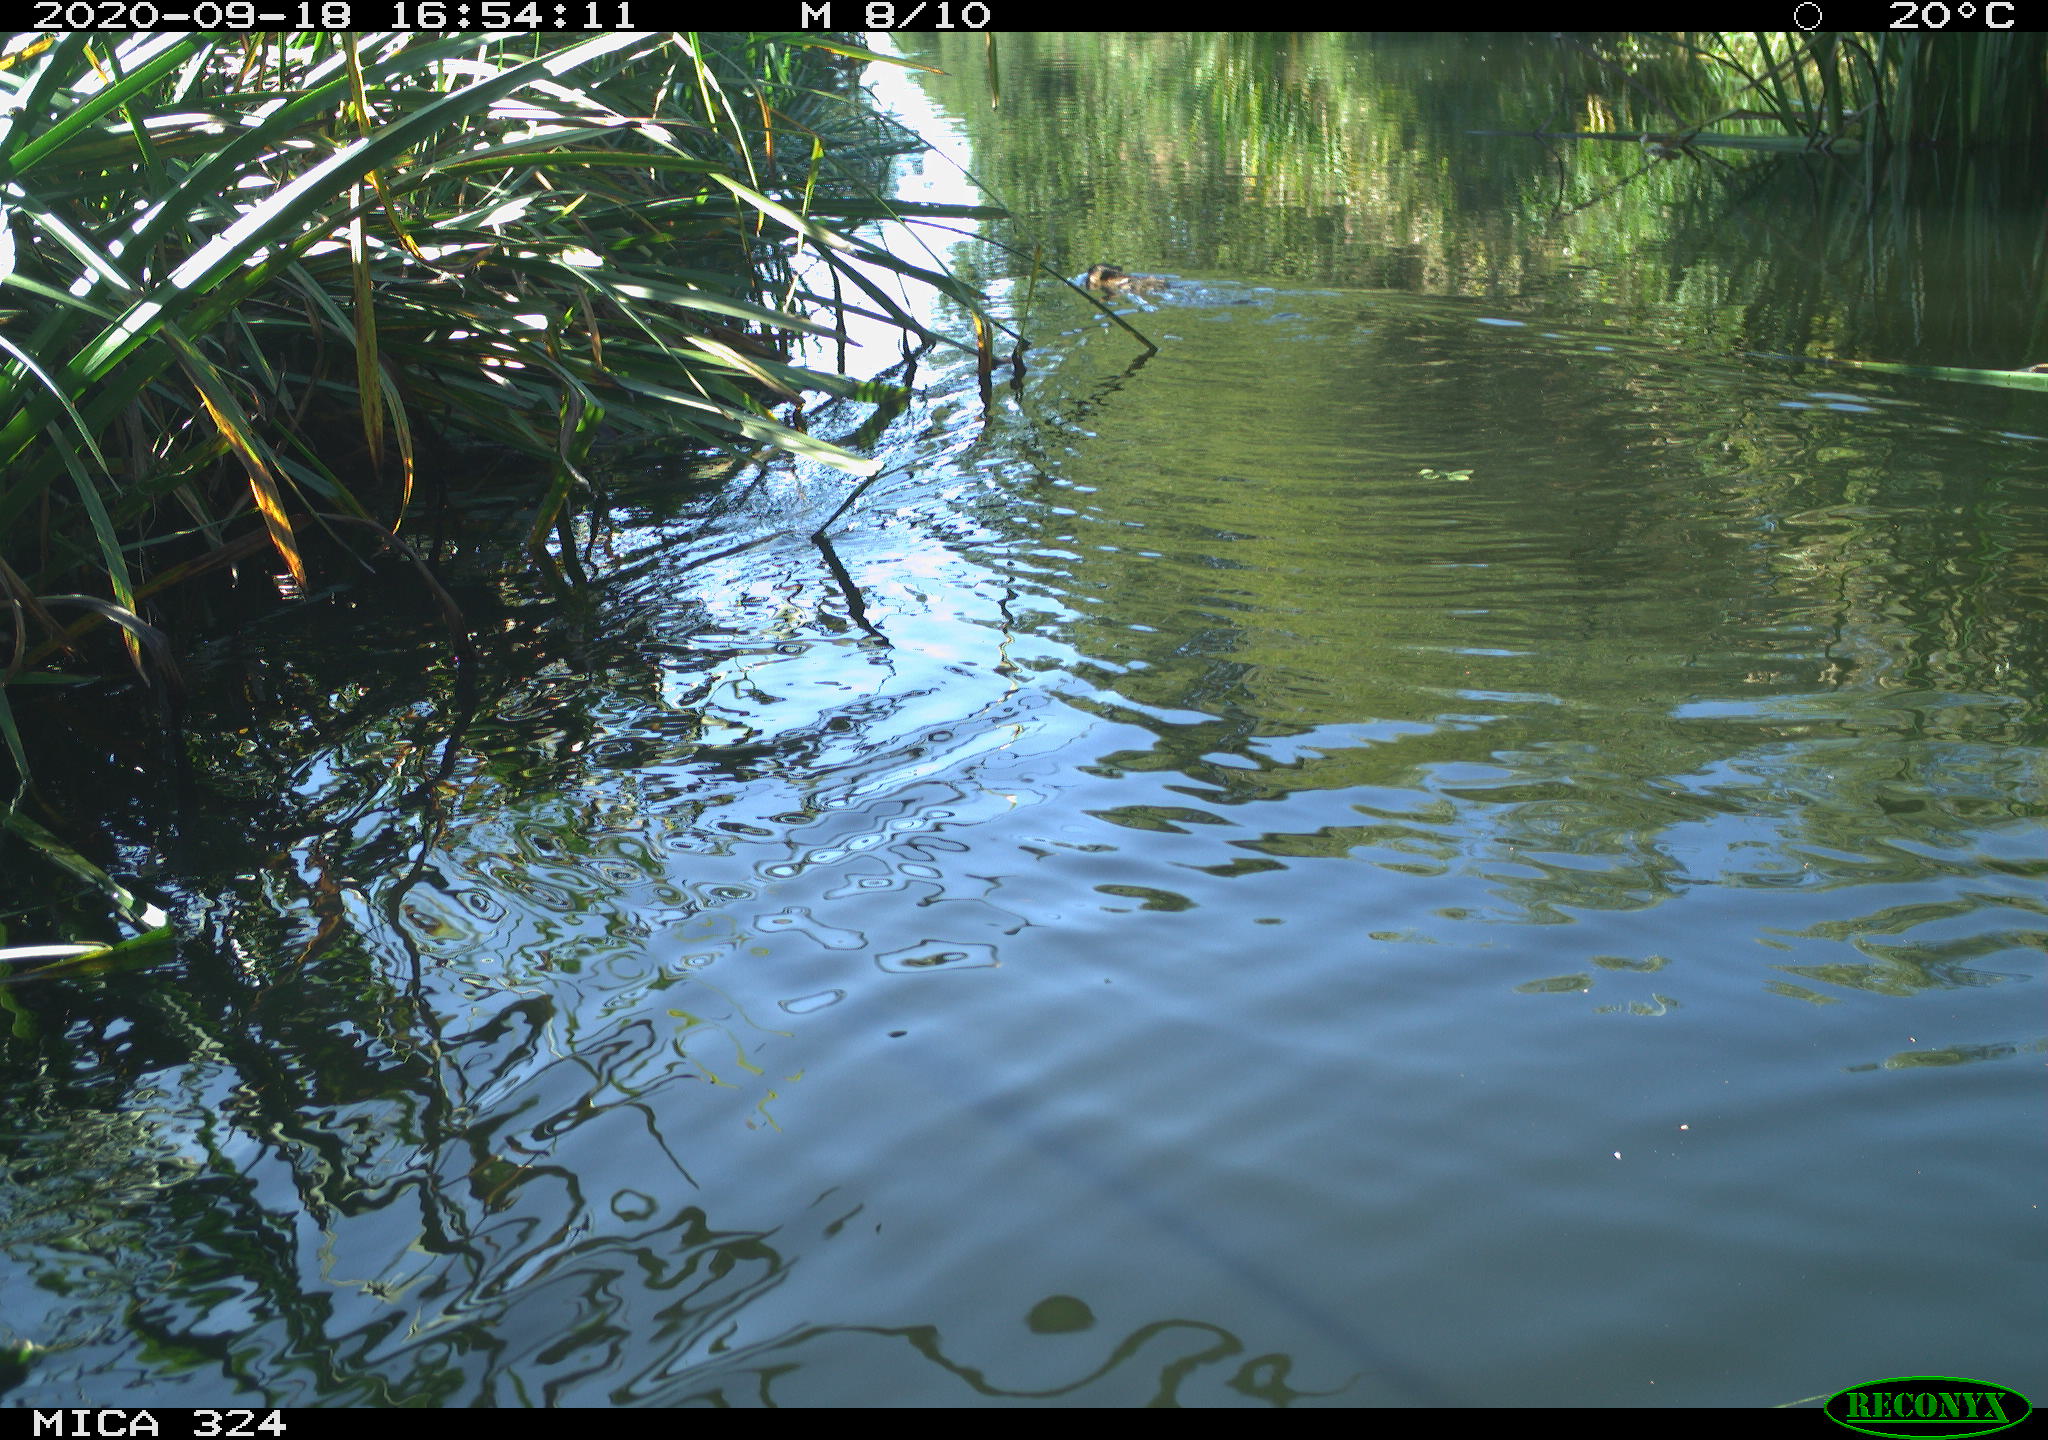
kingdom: Animalia
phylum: Chordata
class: Mammalia
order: Rodentia
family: Cricetidae
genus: Ondatra
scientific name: Ondatra zibethicus
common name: Muskrat
